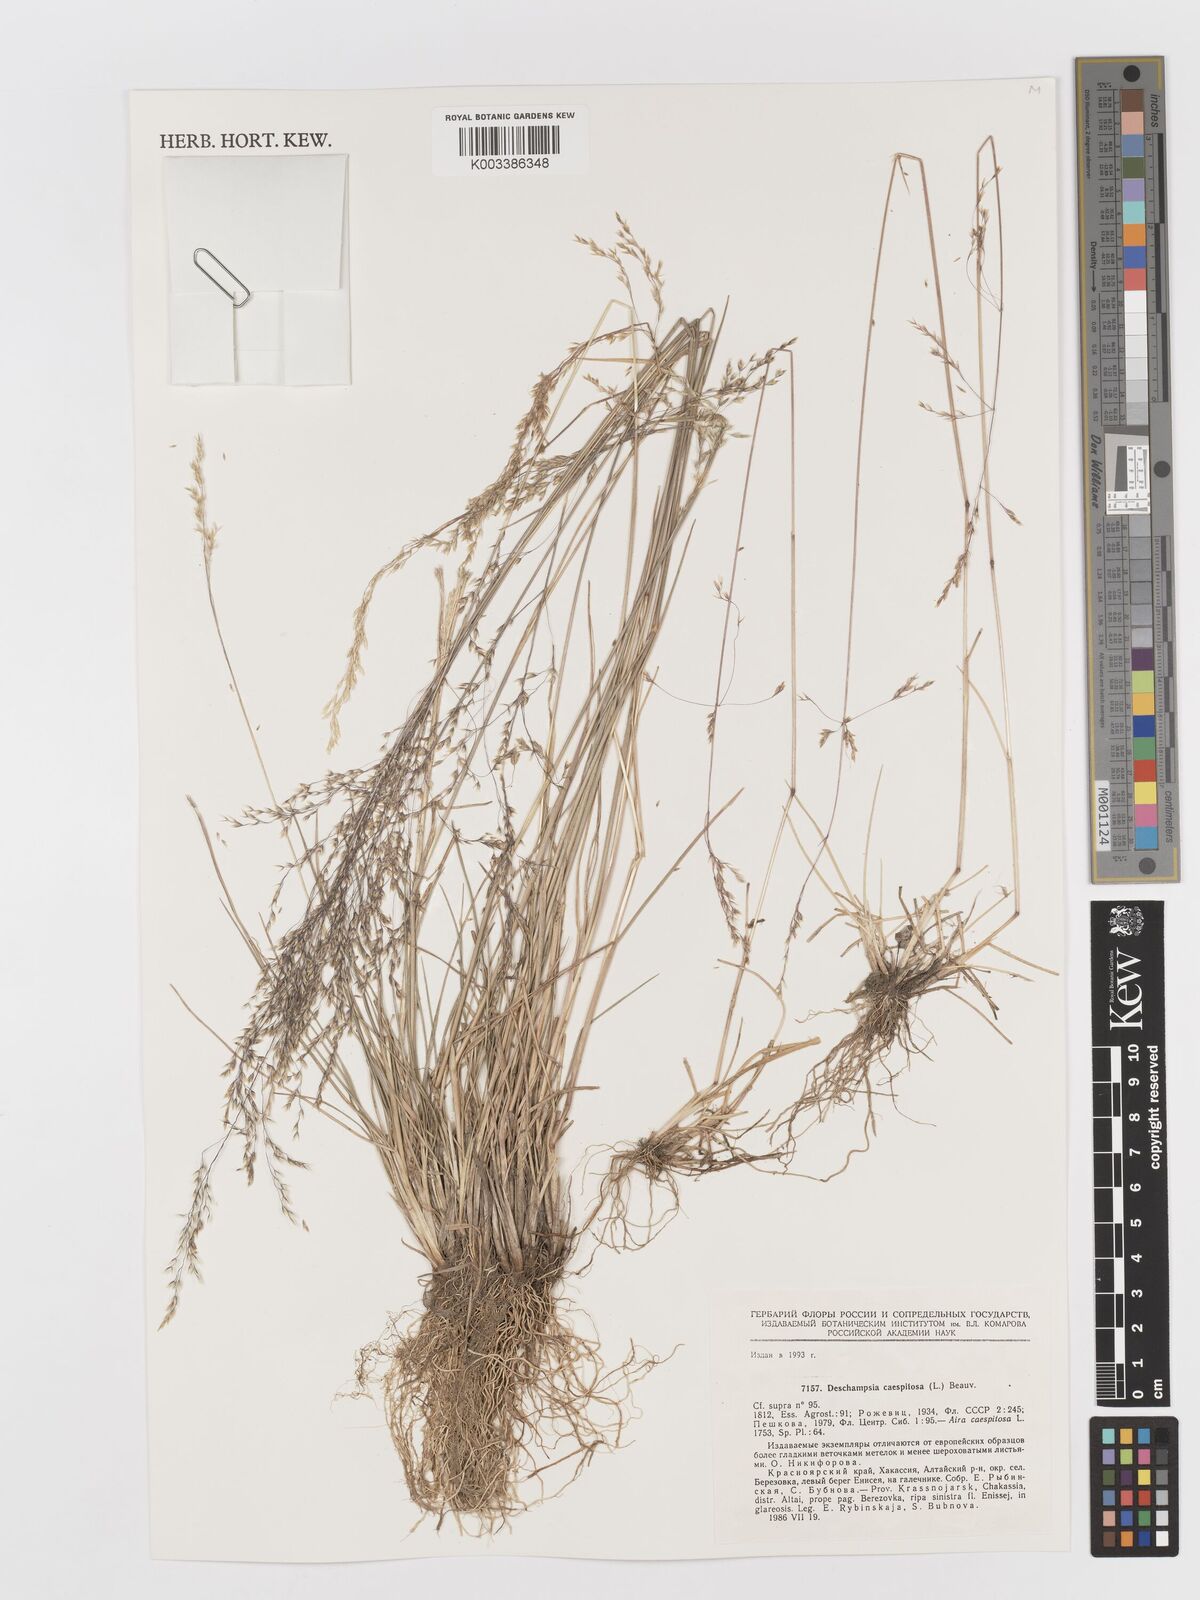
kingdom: Plantae
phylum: Tracheophyta
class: Liliopsida
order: Poales
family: Poaceae
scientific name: Poaceae
